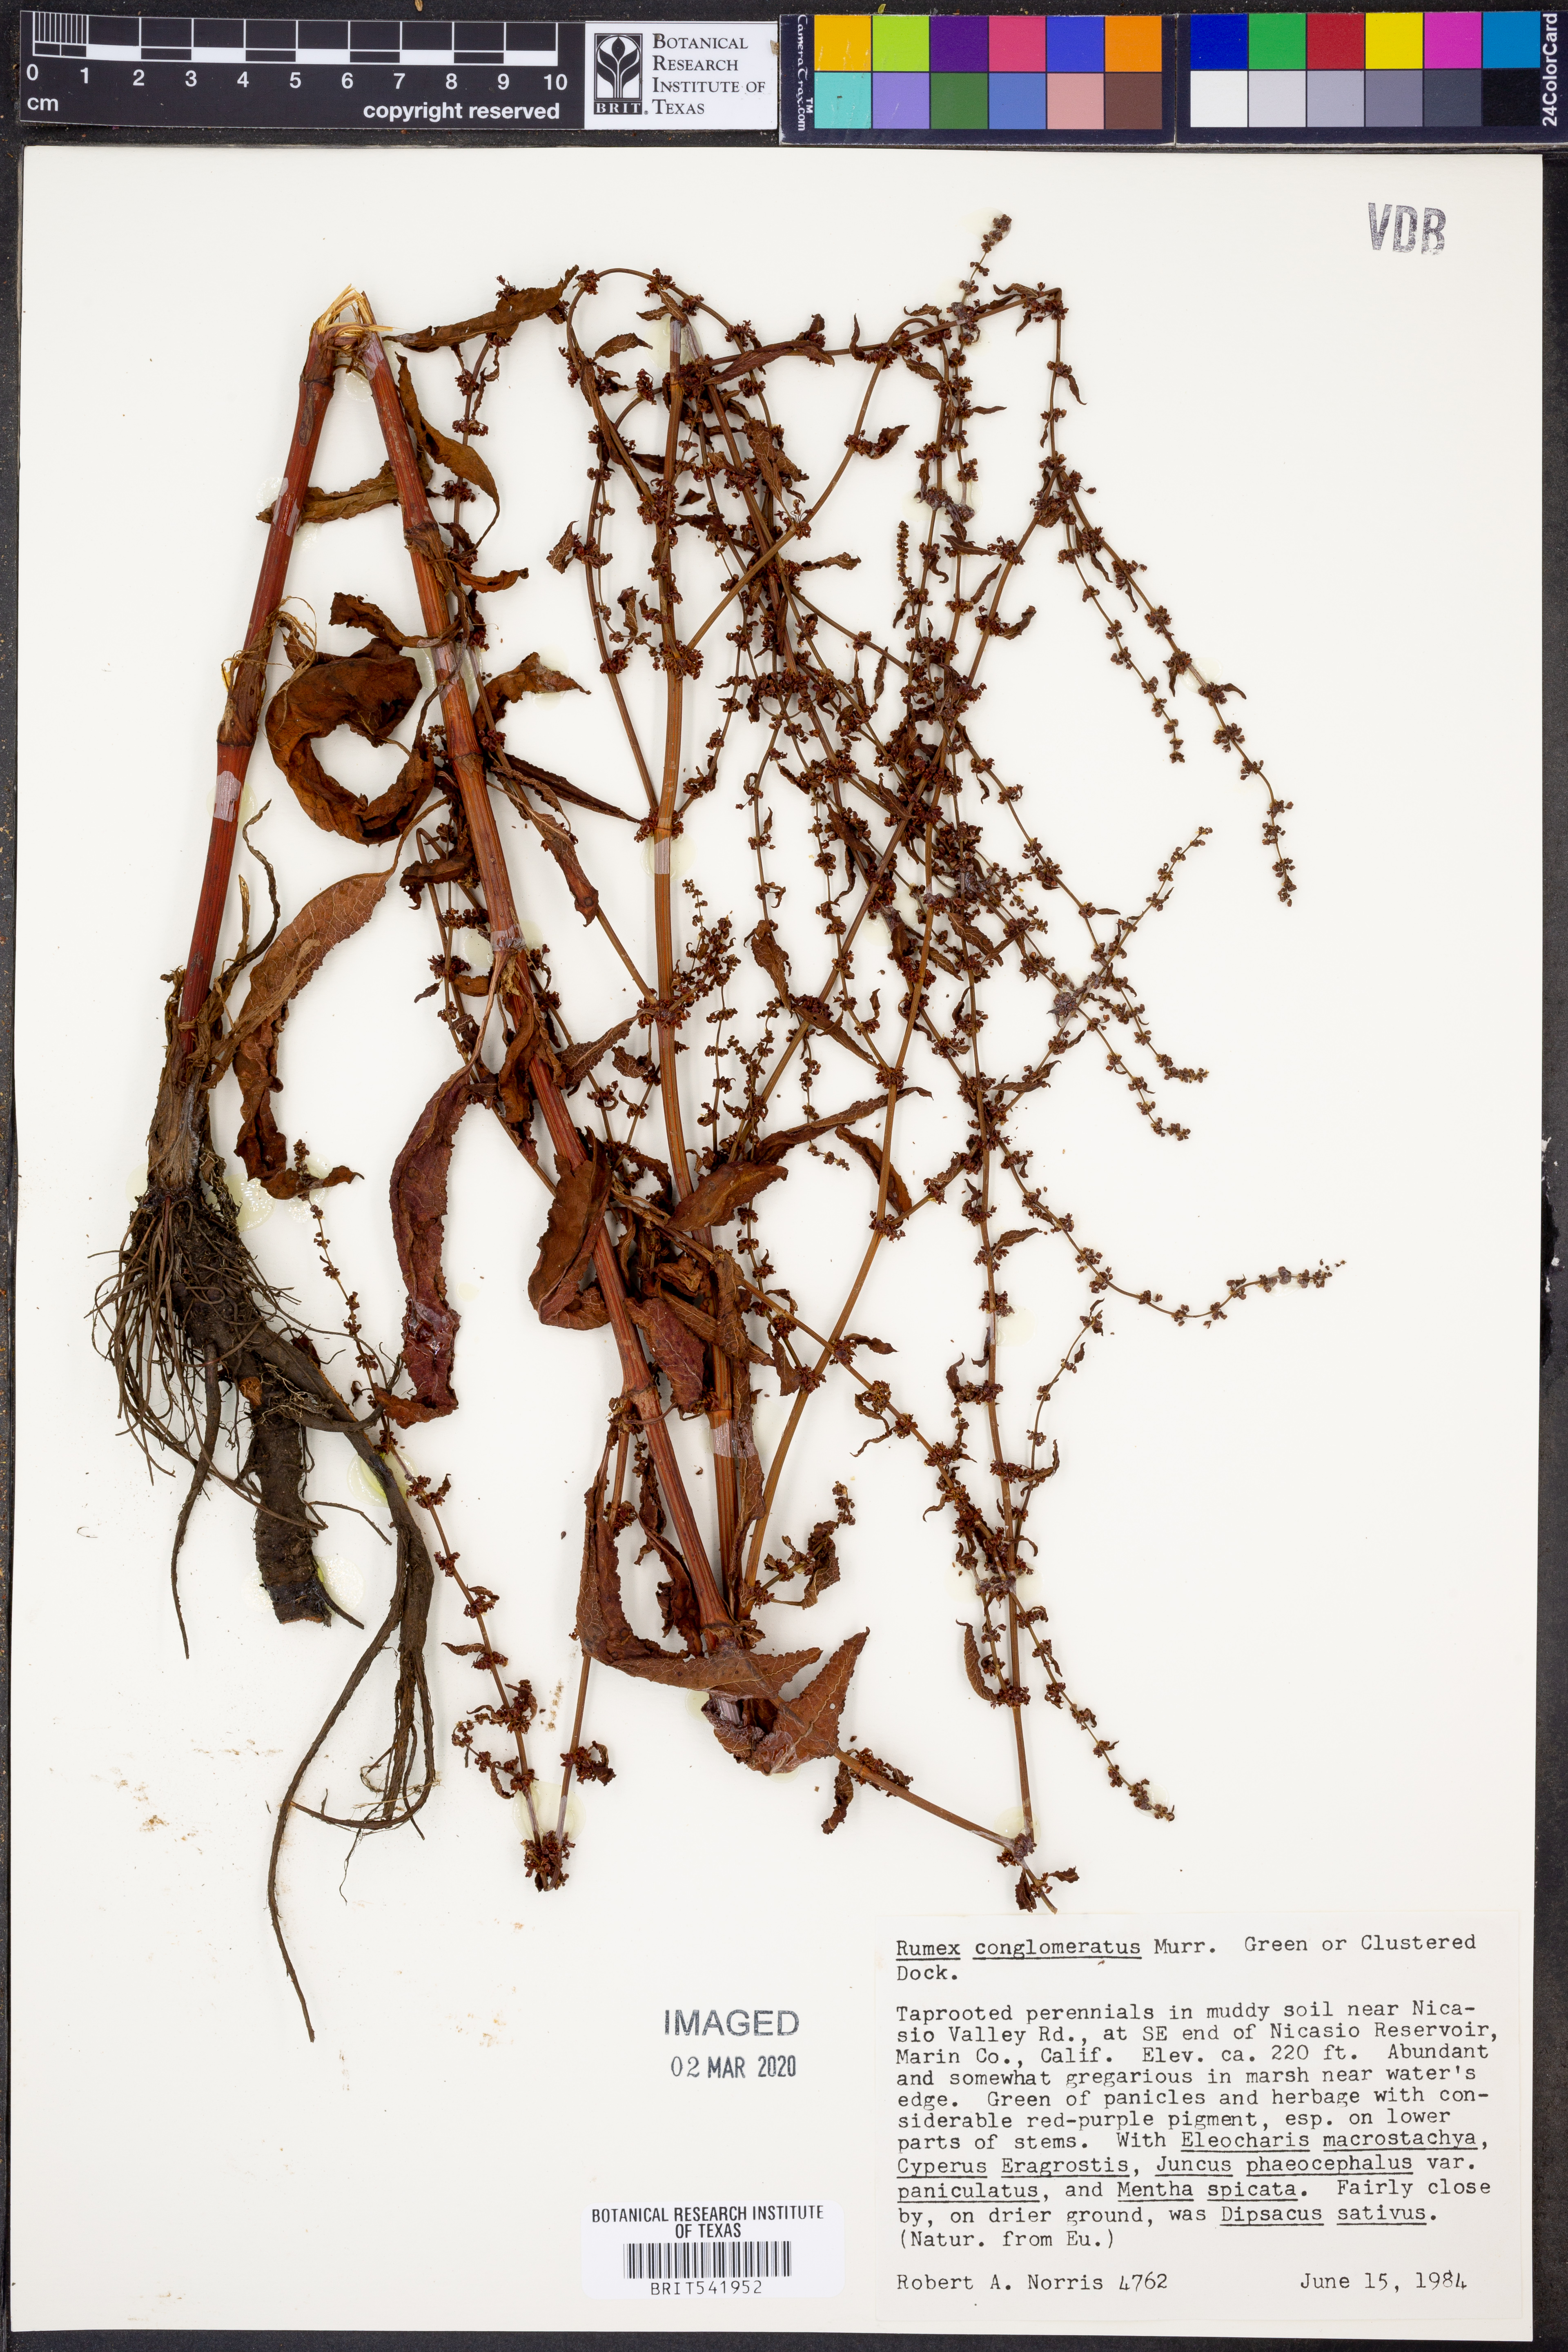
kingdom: Plantae
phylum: Tracheophyta
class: Magnoliopsida
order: Caryophyllales
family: Polygonaceae
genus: Rumex
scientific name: Rumex conglomeratus
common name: Clustered dock
